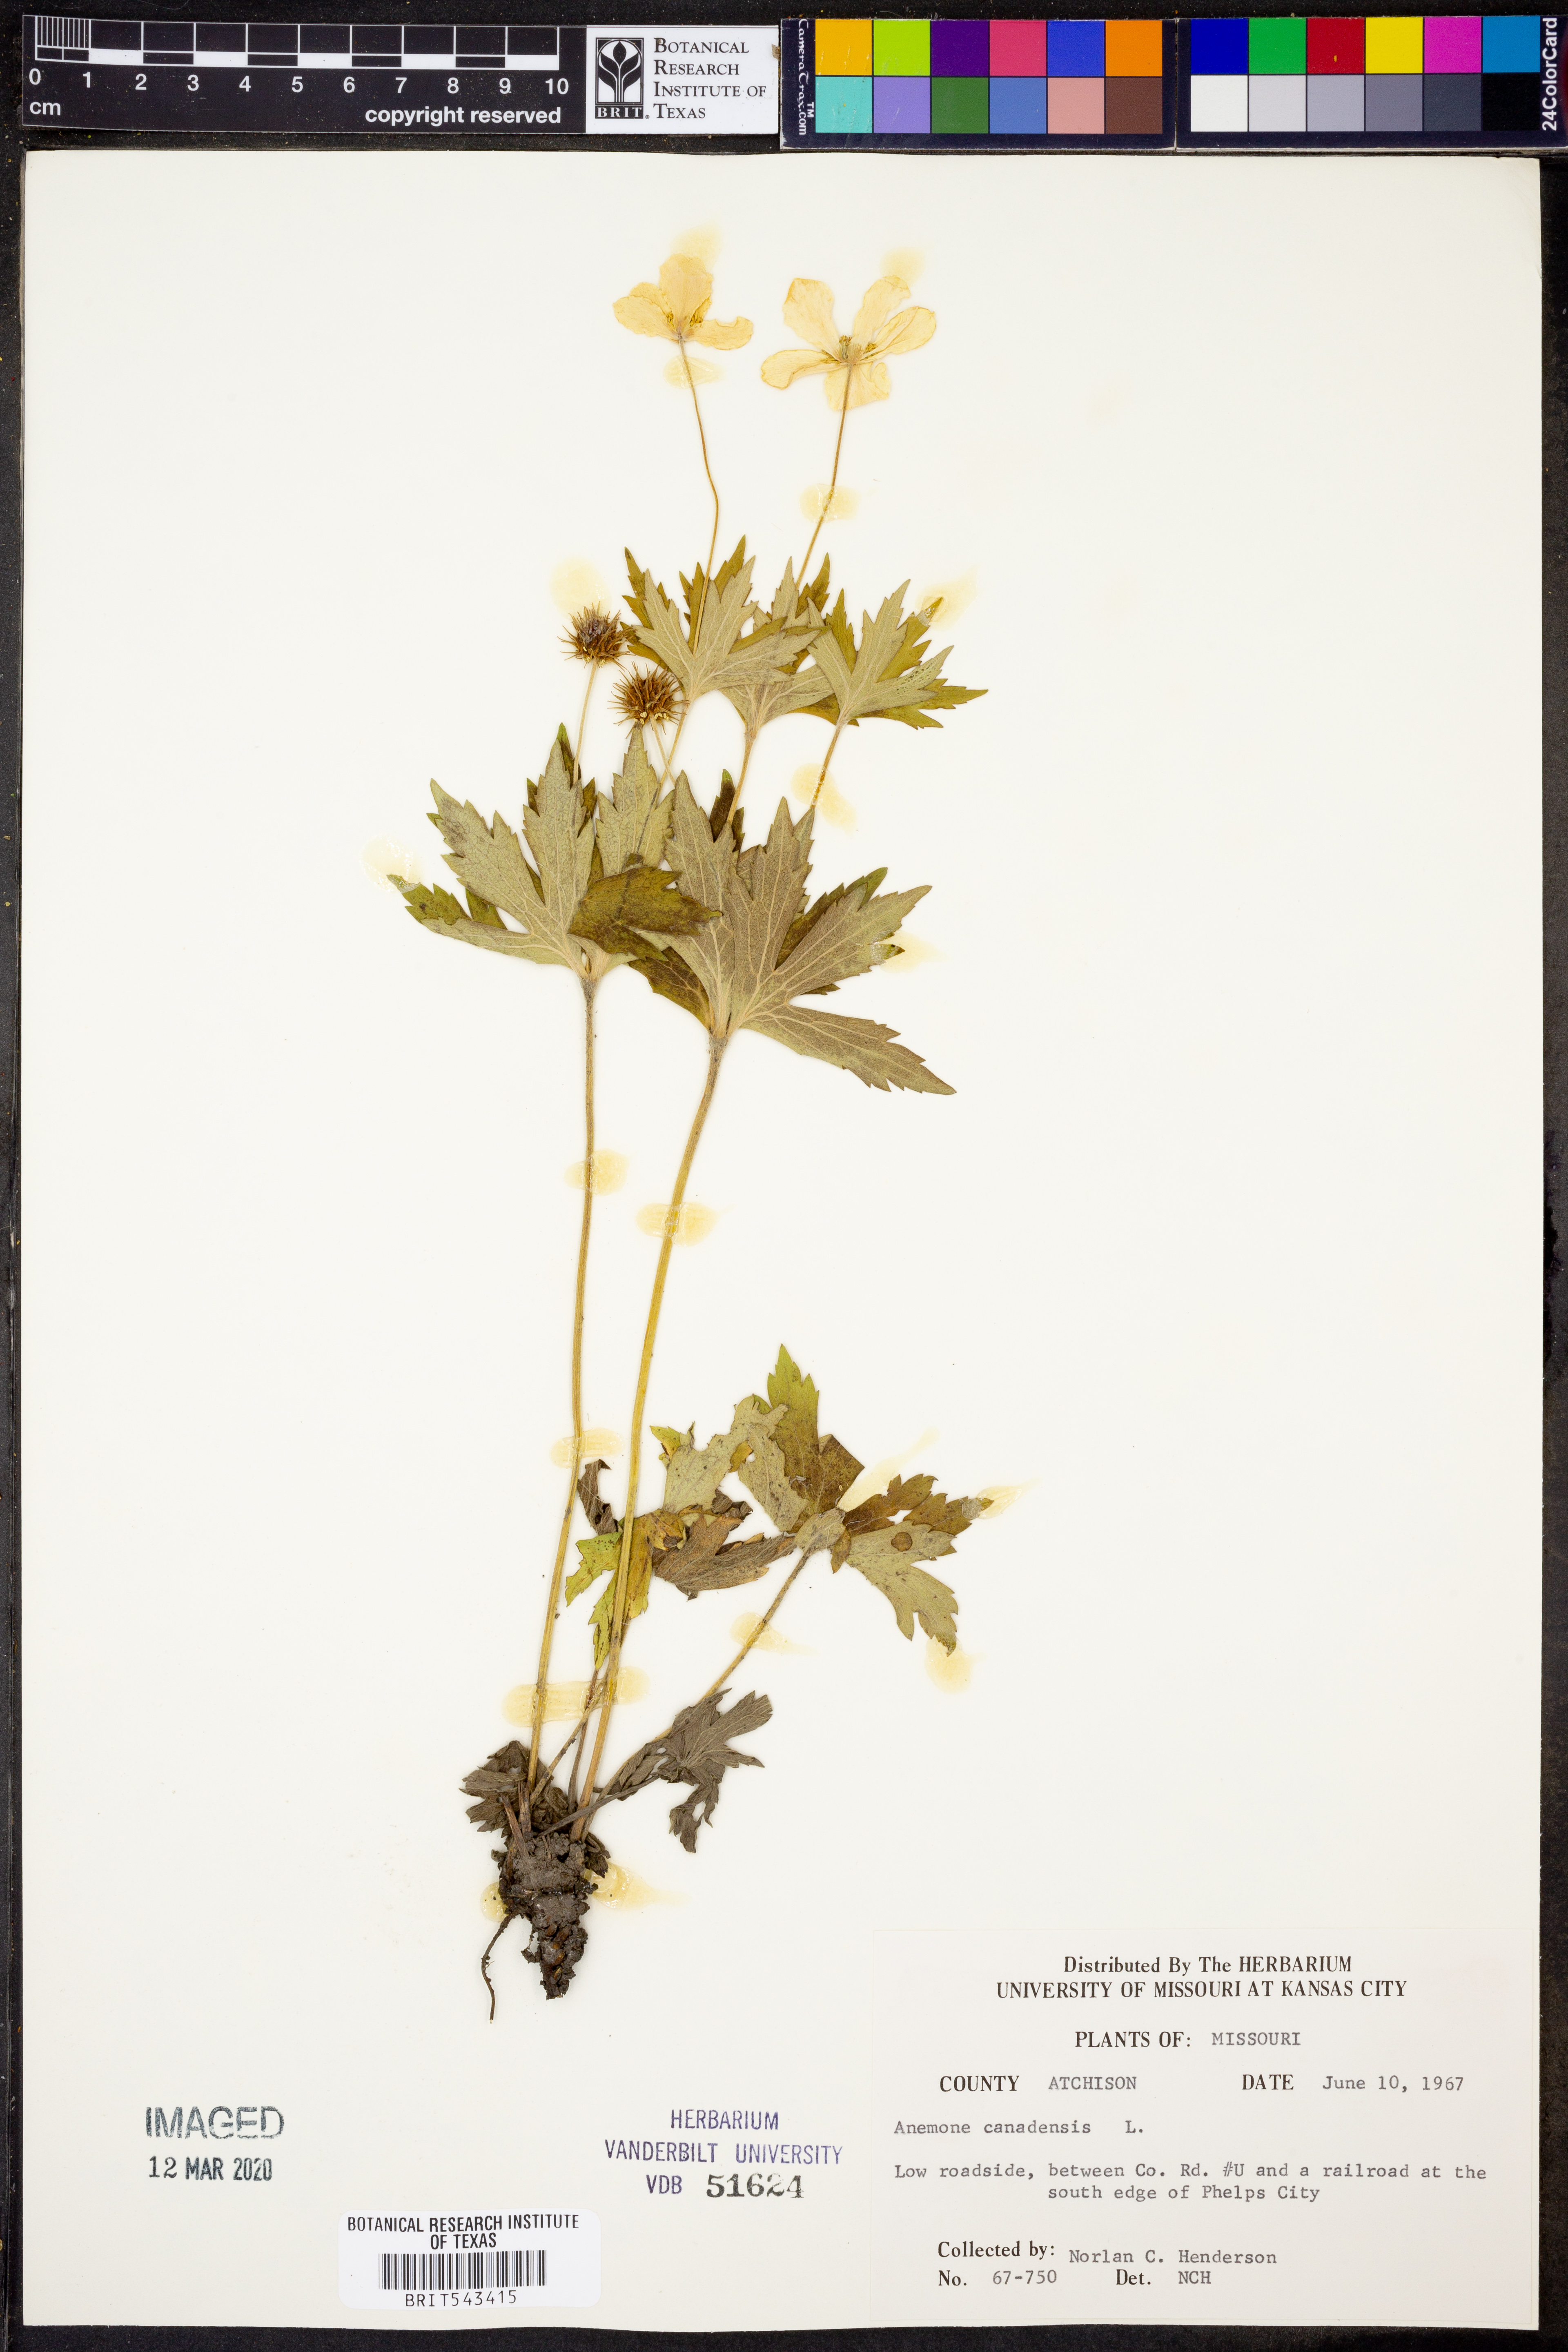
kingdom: Plantae
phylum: Tracheophyta
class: Magnoliopsida
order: Ranunculales
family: Ranunculaceae
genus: Anemonastrum
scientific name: Anemonastrum canadense
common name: Canada anemone
